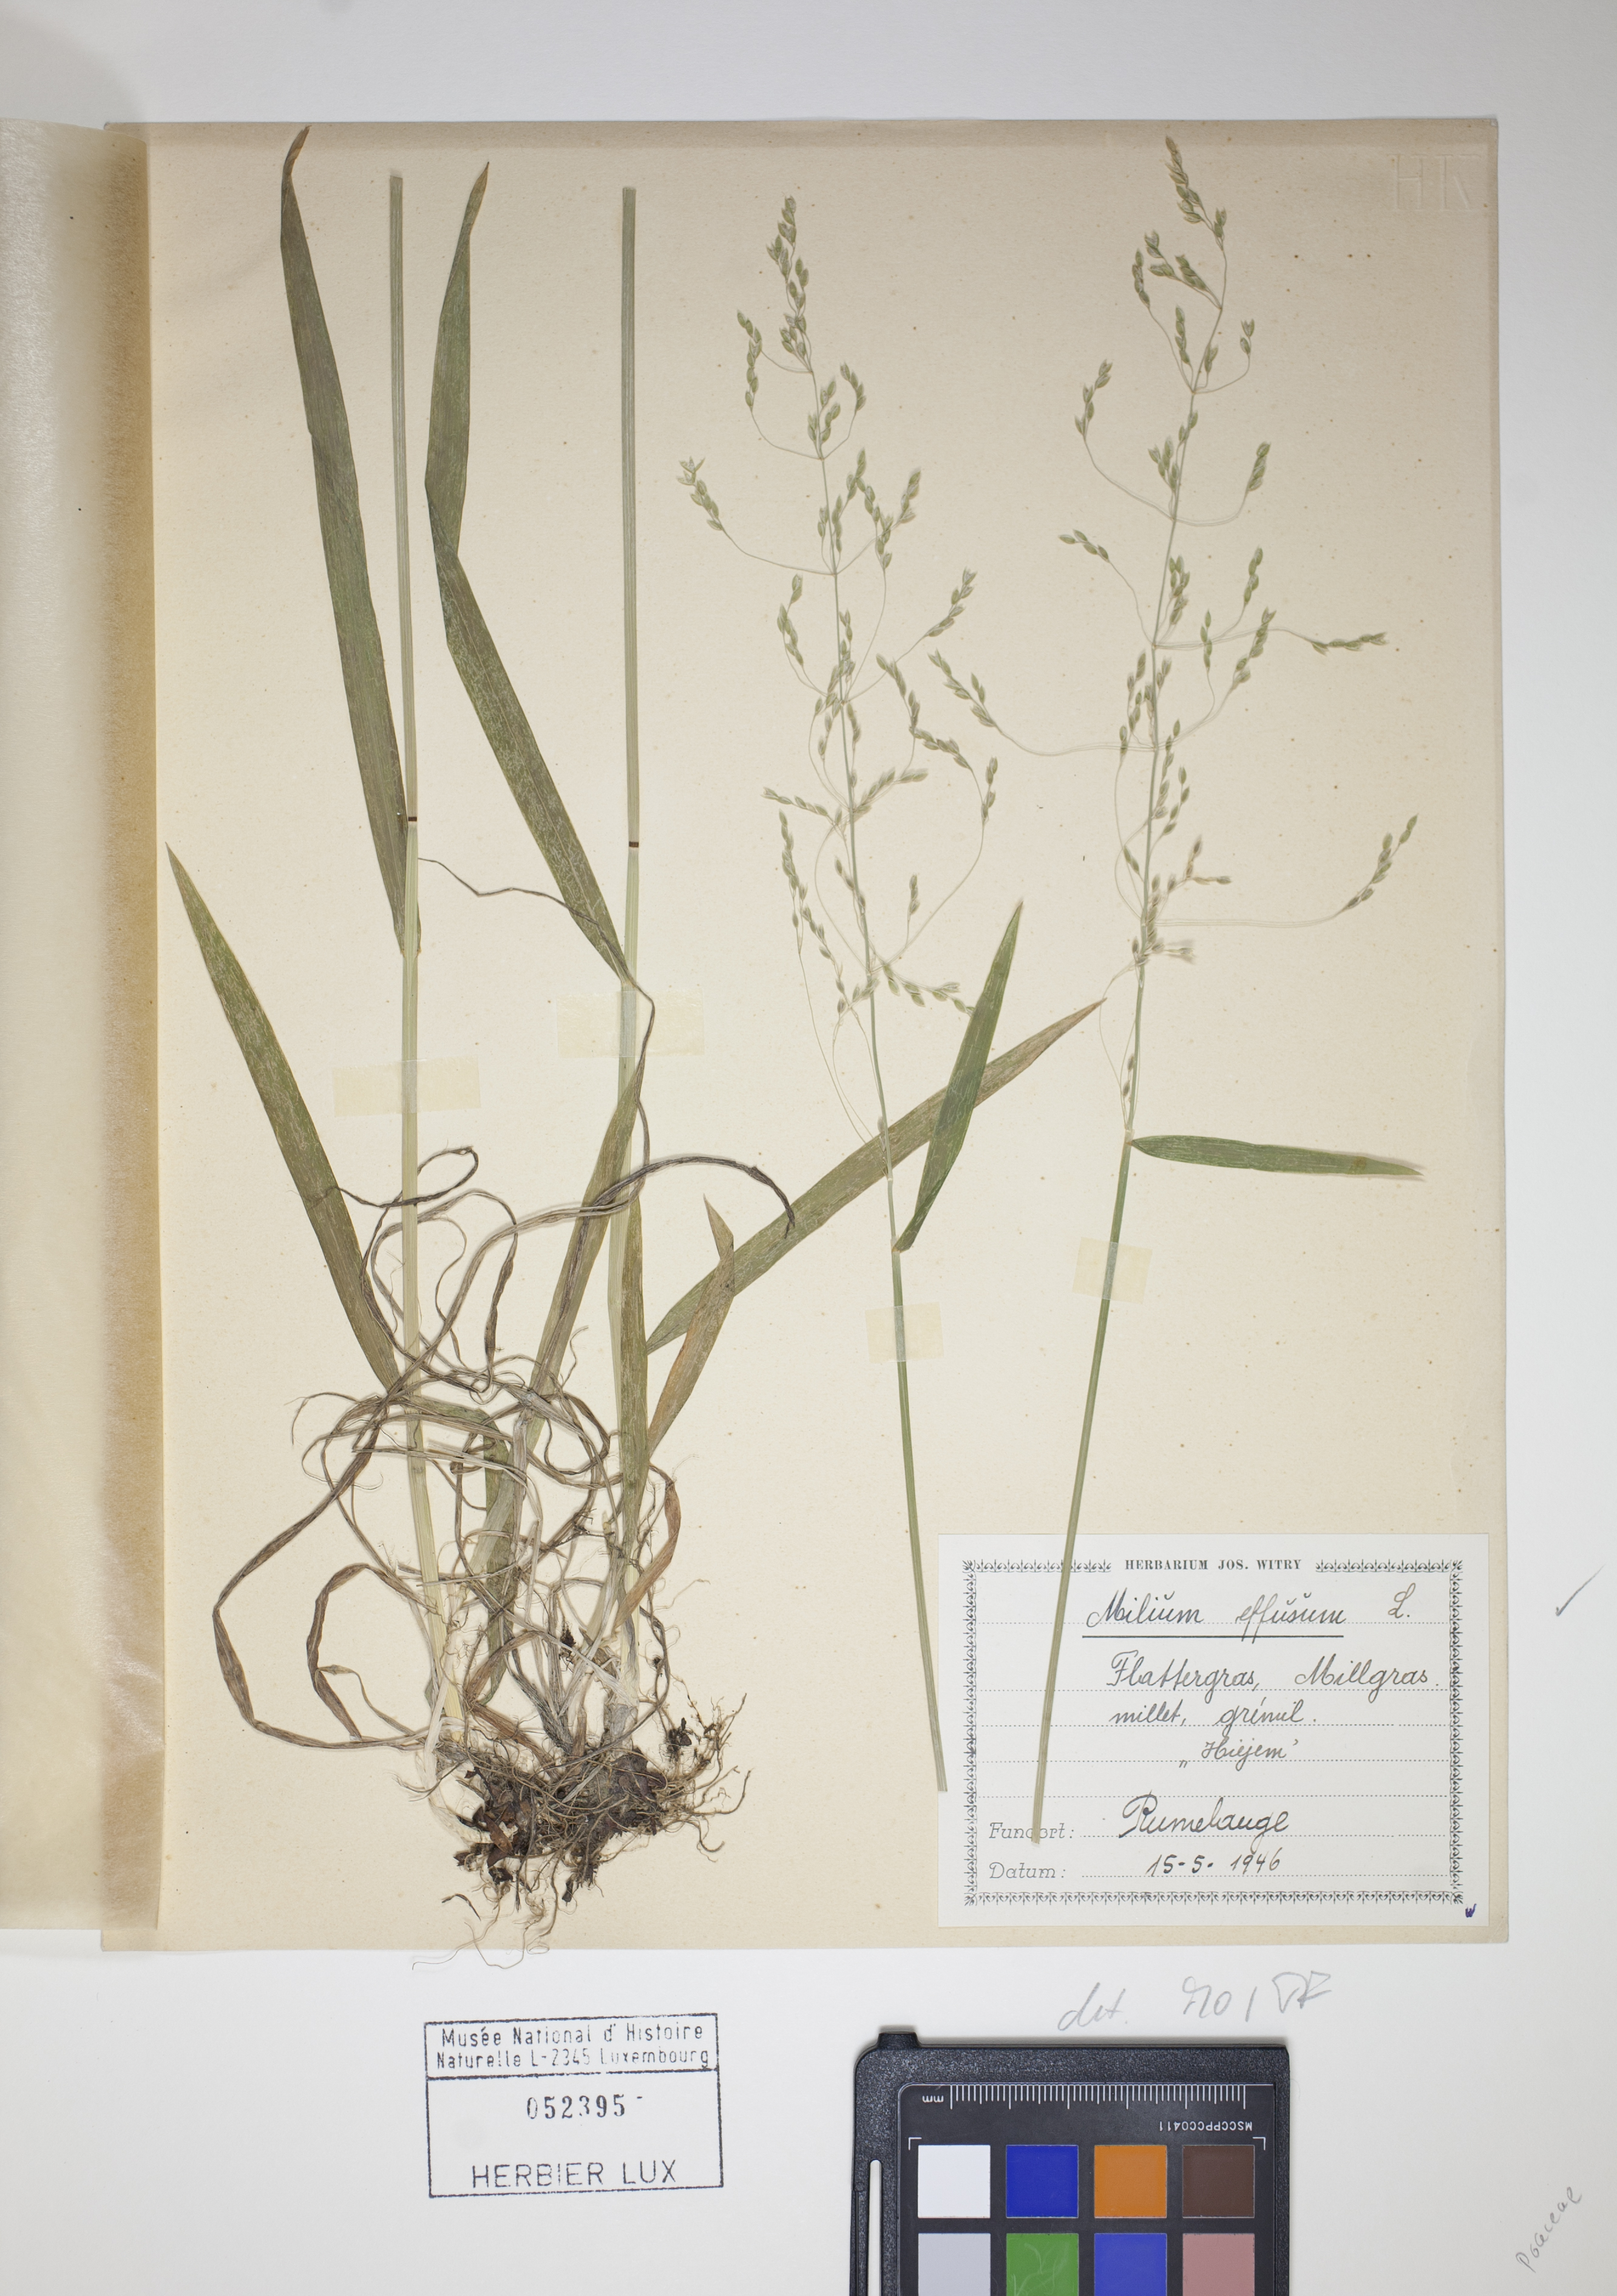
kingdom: Plantae
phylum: Tracheophyta
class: Liliopsida
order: Poales
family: Poaceae
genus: Milium
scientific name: Milium effusum
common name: Wood millet
